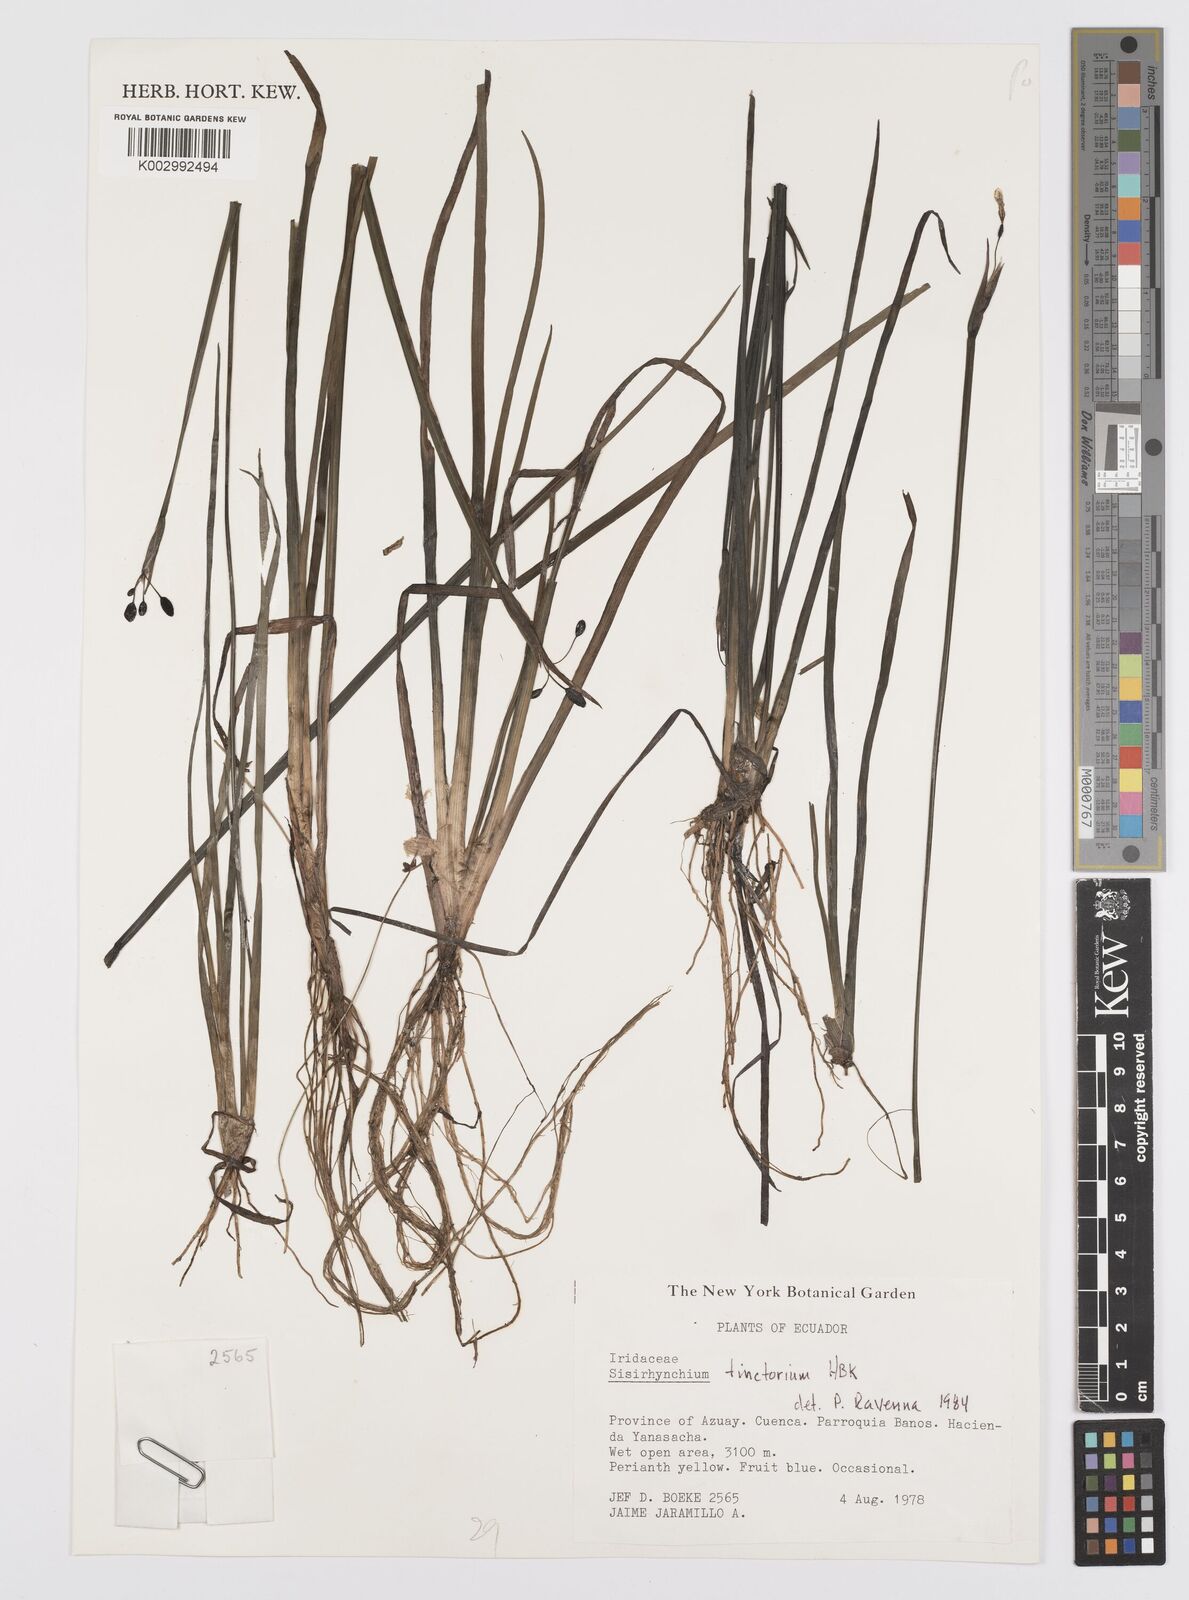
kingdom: Plantae
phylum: Tracheophyta
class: Liliopsida
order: Asparagales
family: Iridaceae
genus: Sisyrinchium
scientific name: Sisyrinchium tinctorium
